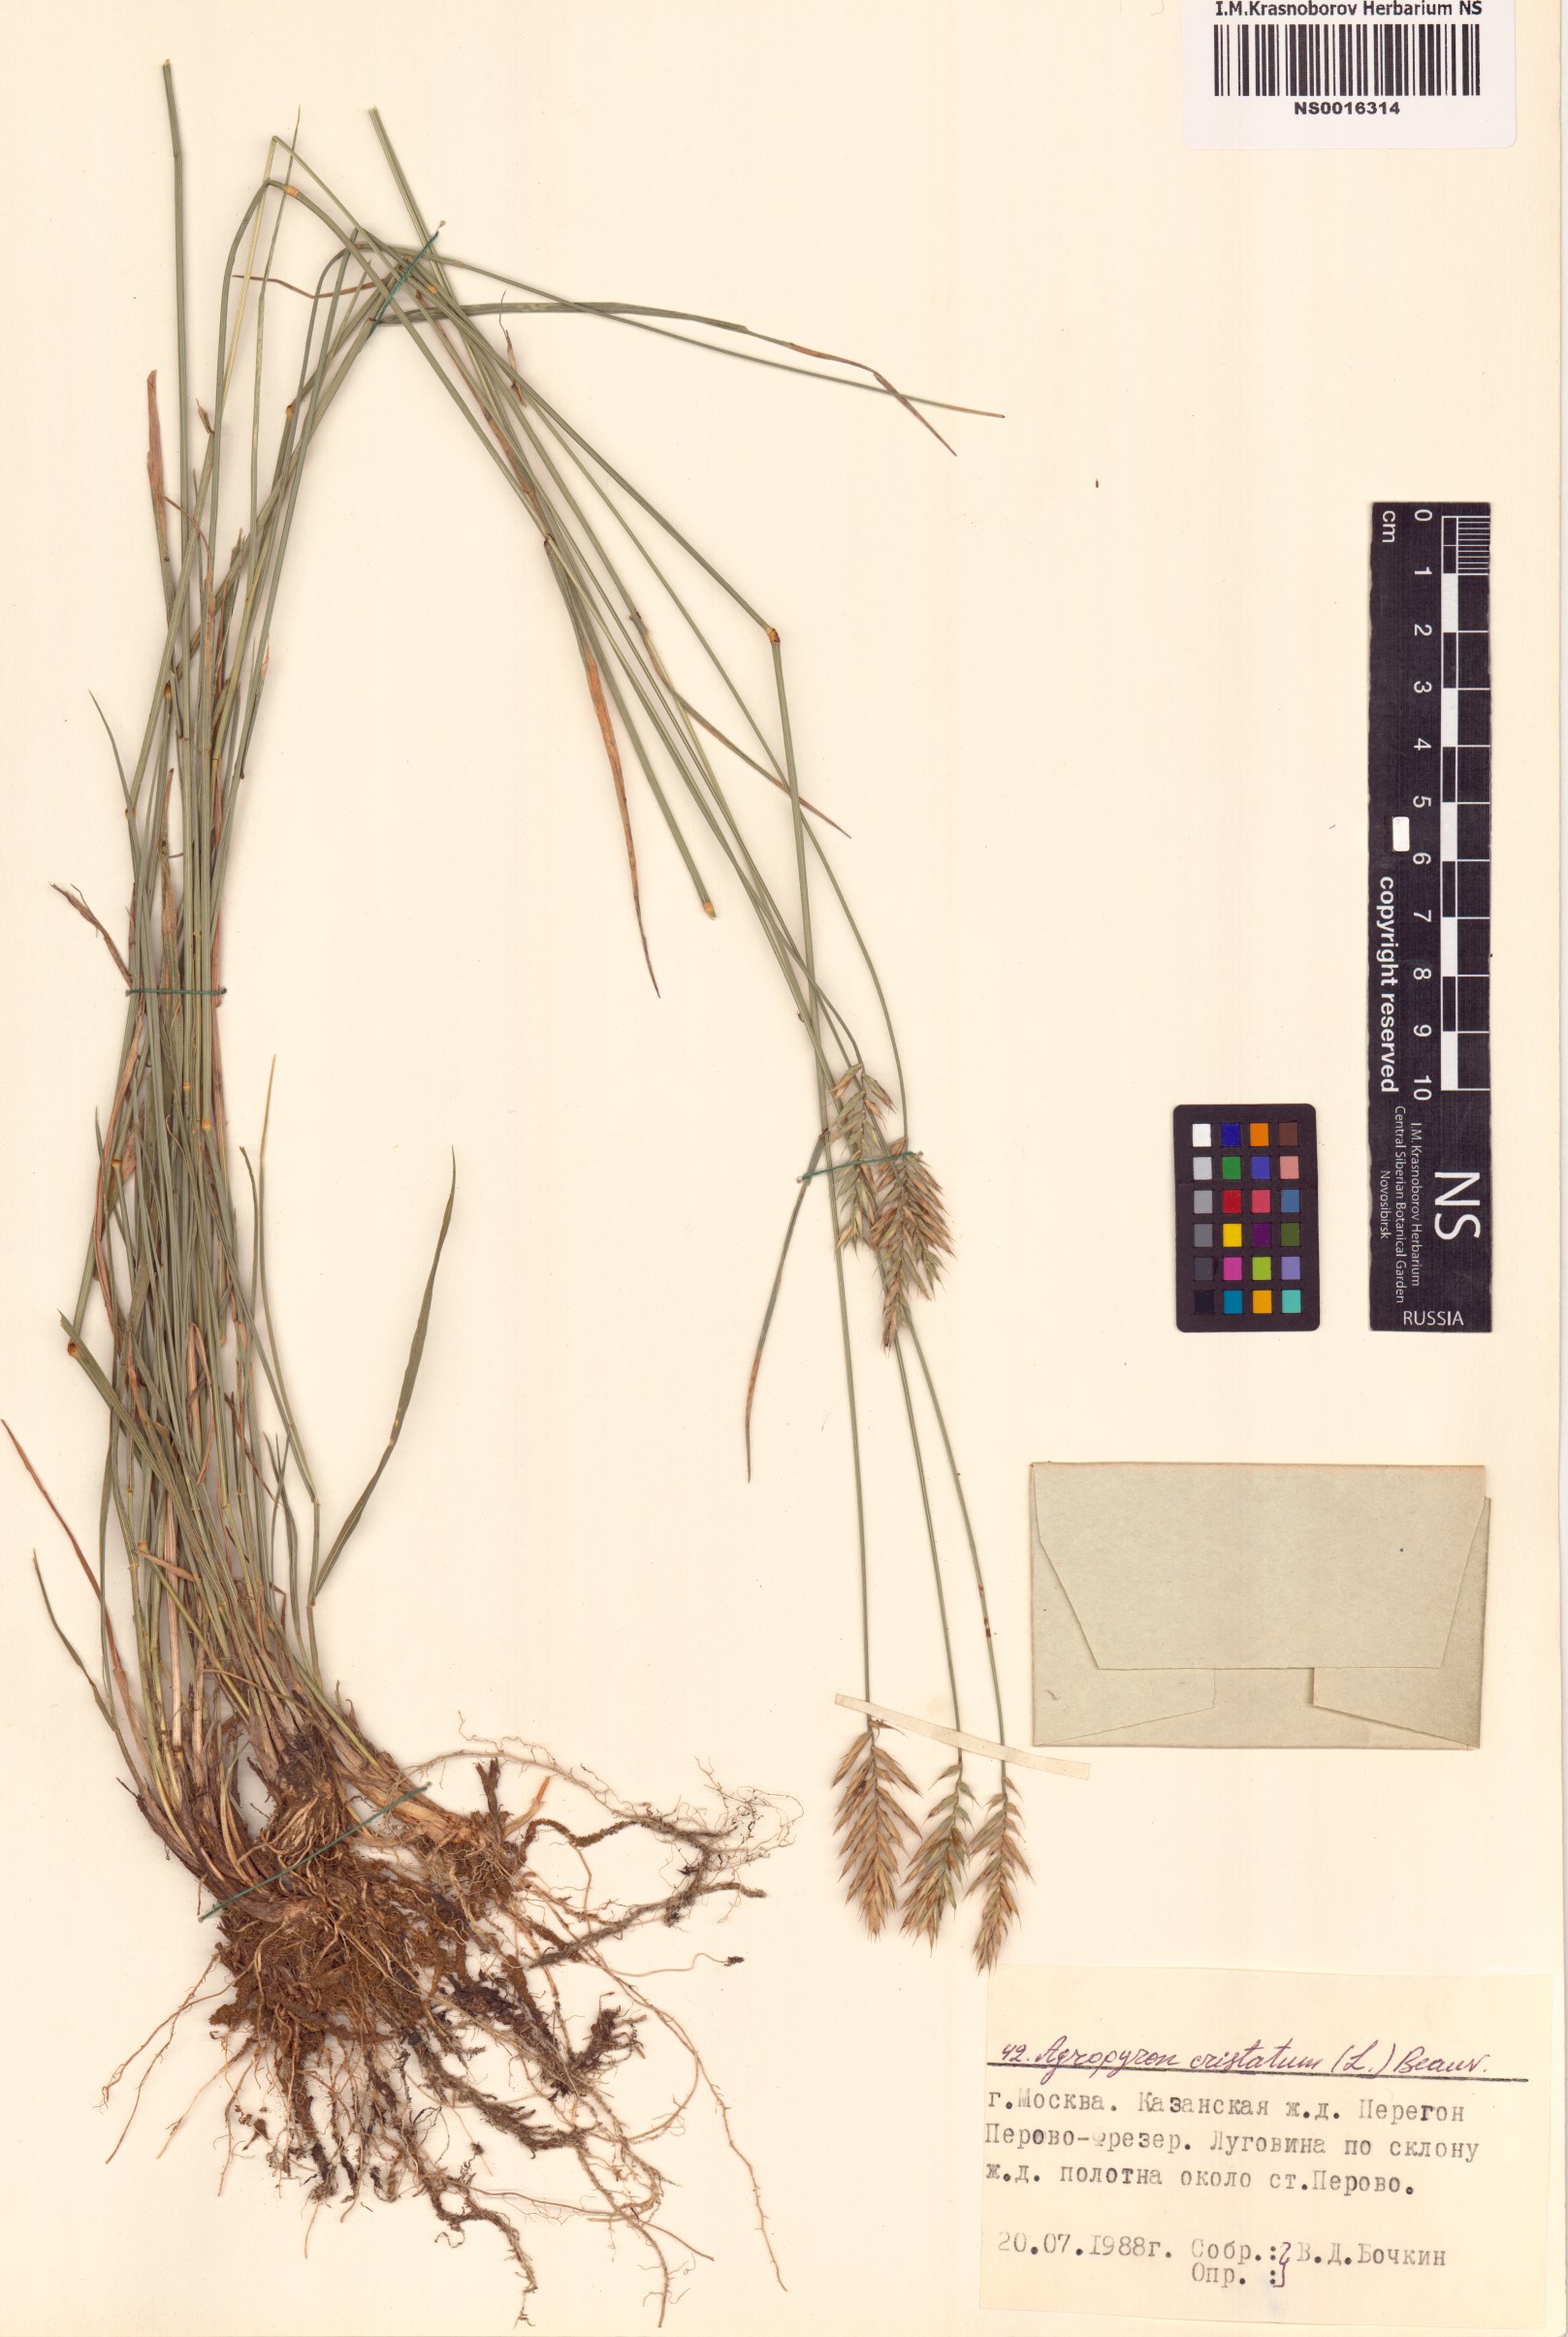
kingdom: Plantae
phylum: Tracheophyta
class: Liliopsida
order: Poales
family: Poaceae
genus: Agropyron
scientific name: Agropyron cristatum
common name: Crested wheatgrass
